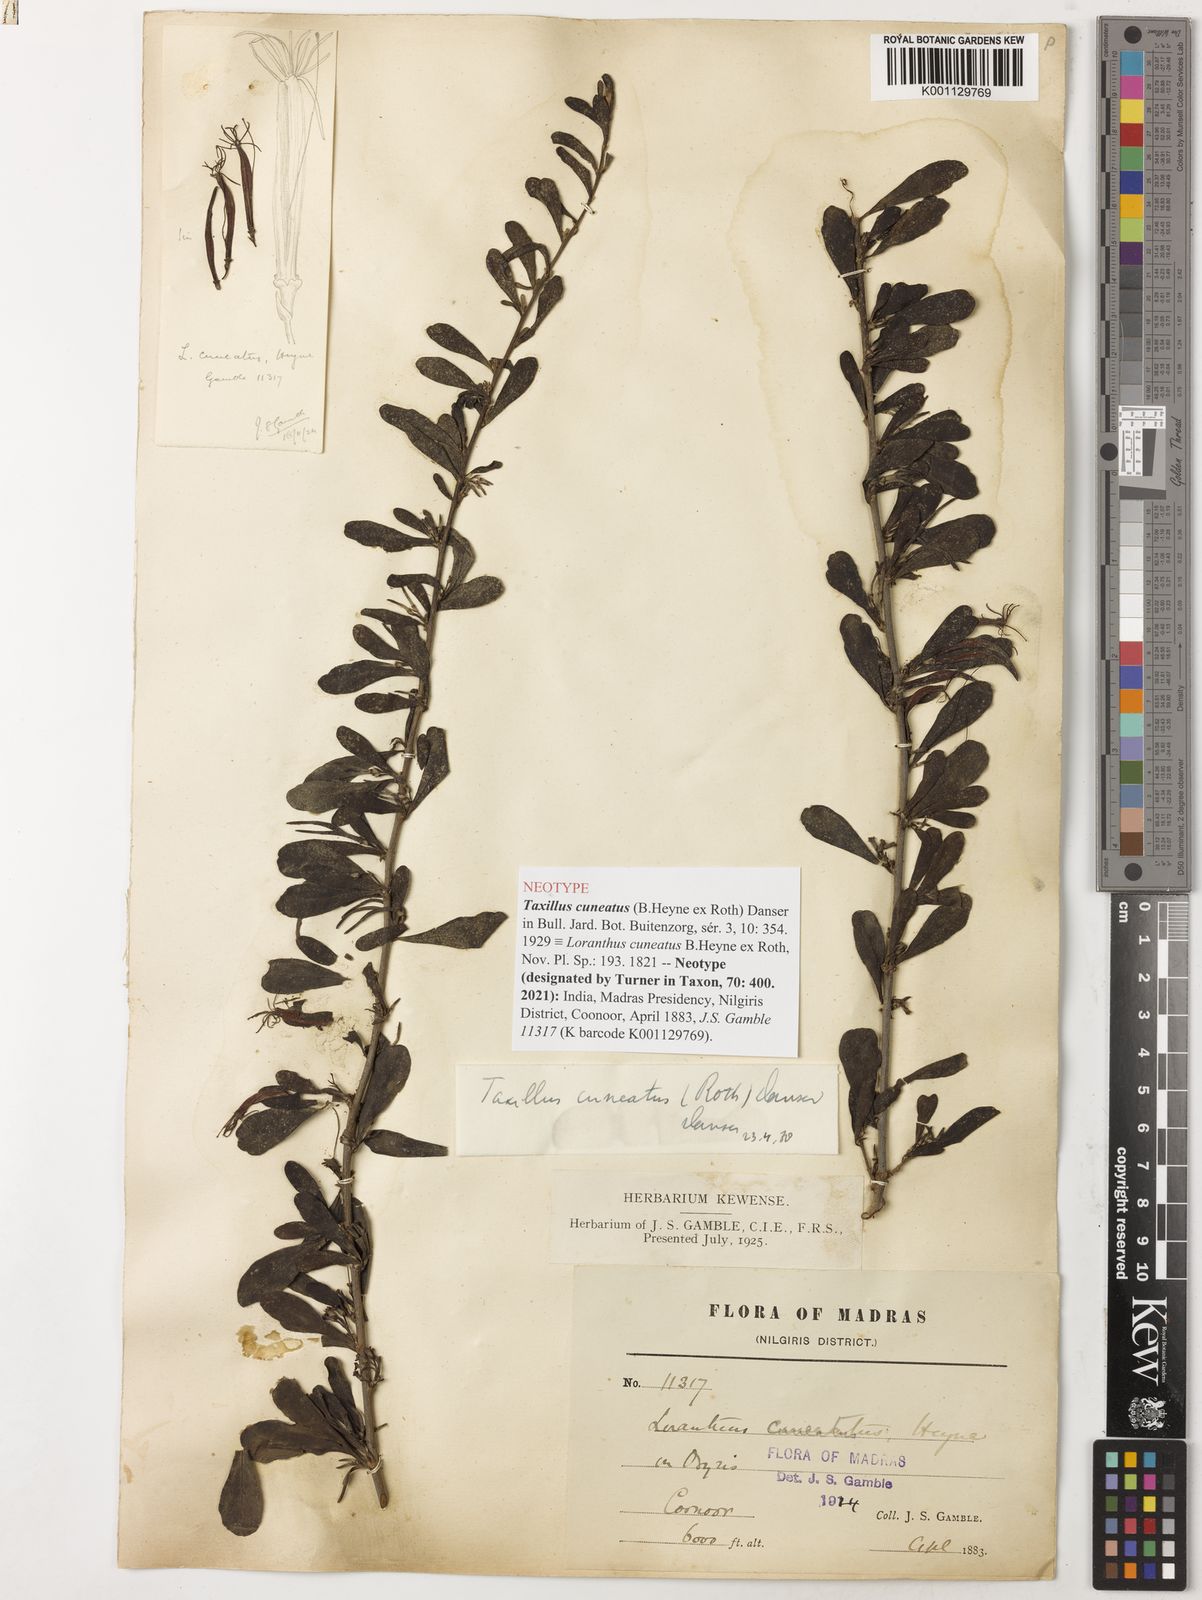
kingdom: Plantae
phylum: Tracheophyta
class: Magnoliopsida
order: Santalales
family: Loranthaceae
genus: Taxillus
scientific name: Taxillus cuneatus
